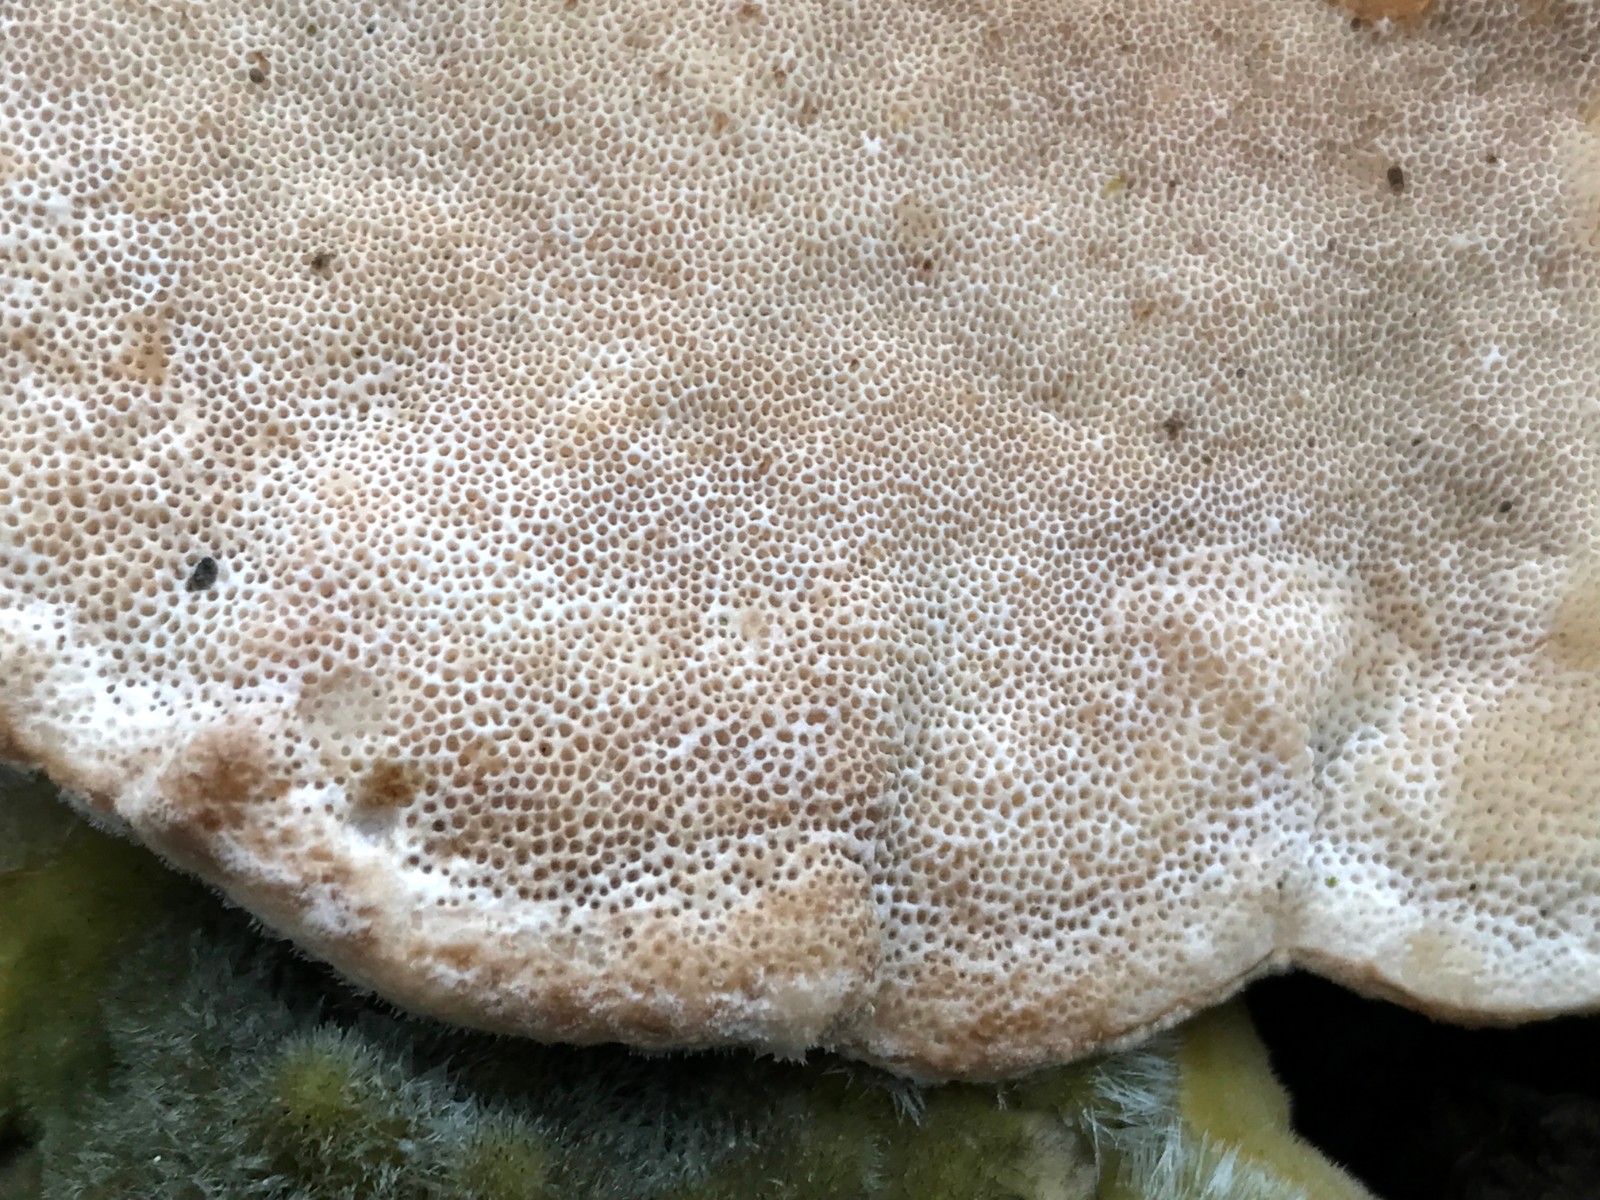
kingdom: Fungi
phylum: Basidiomycota
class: Agaricomycetes
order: Polyporales
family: Polyporaceae
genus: Trametes
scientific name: Trametes hirsuta
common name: håret læderporesvamp
